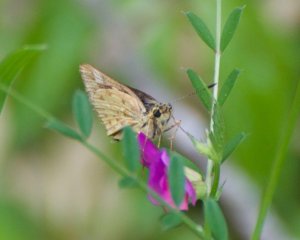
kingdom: Animalia
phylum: Arthropoda
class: Insecta
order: Lepidoptera
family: Hesperiidae
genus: Mastor
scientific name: Mastor carolina
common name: Carolina Roadside-Skipper
